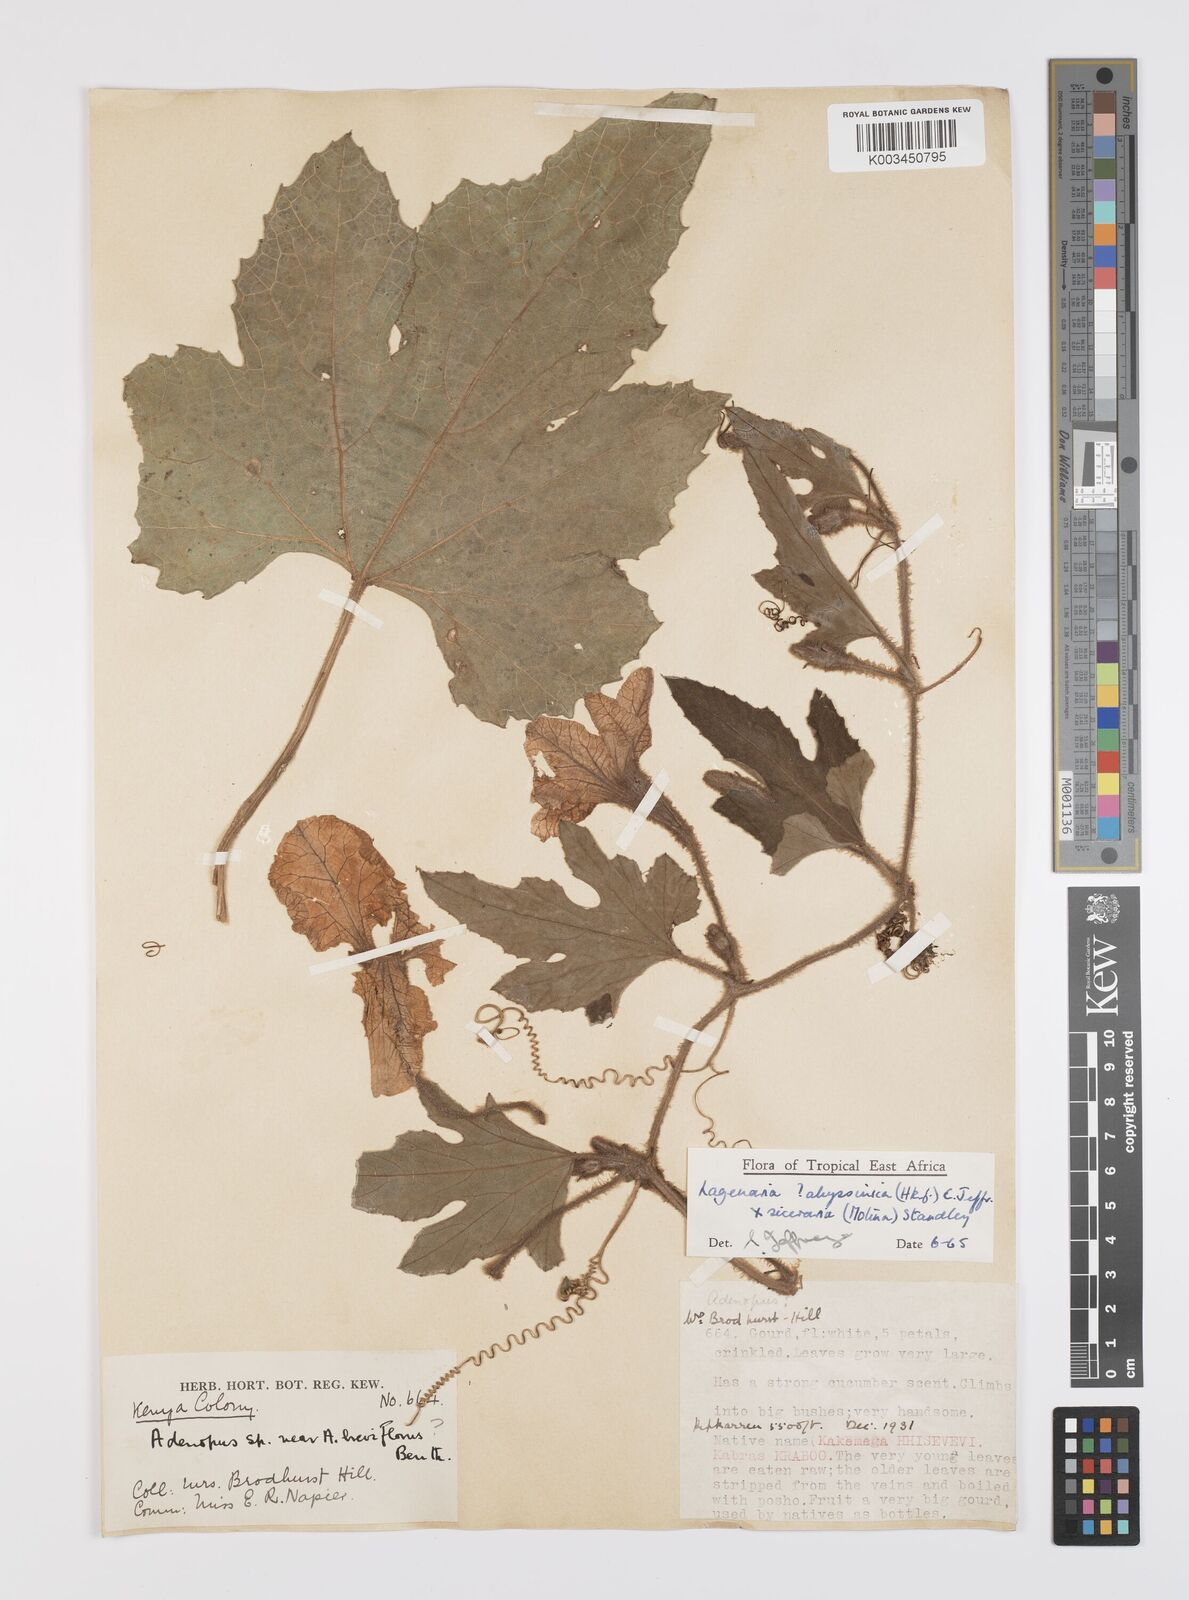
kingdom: Plantae
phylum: Tracheophyta
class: Magnoliopsida
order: Cucurbitales
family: Cucurbitaceae
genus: Lagenaria
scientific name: Lagenaria abyssinica
